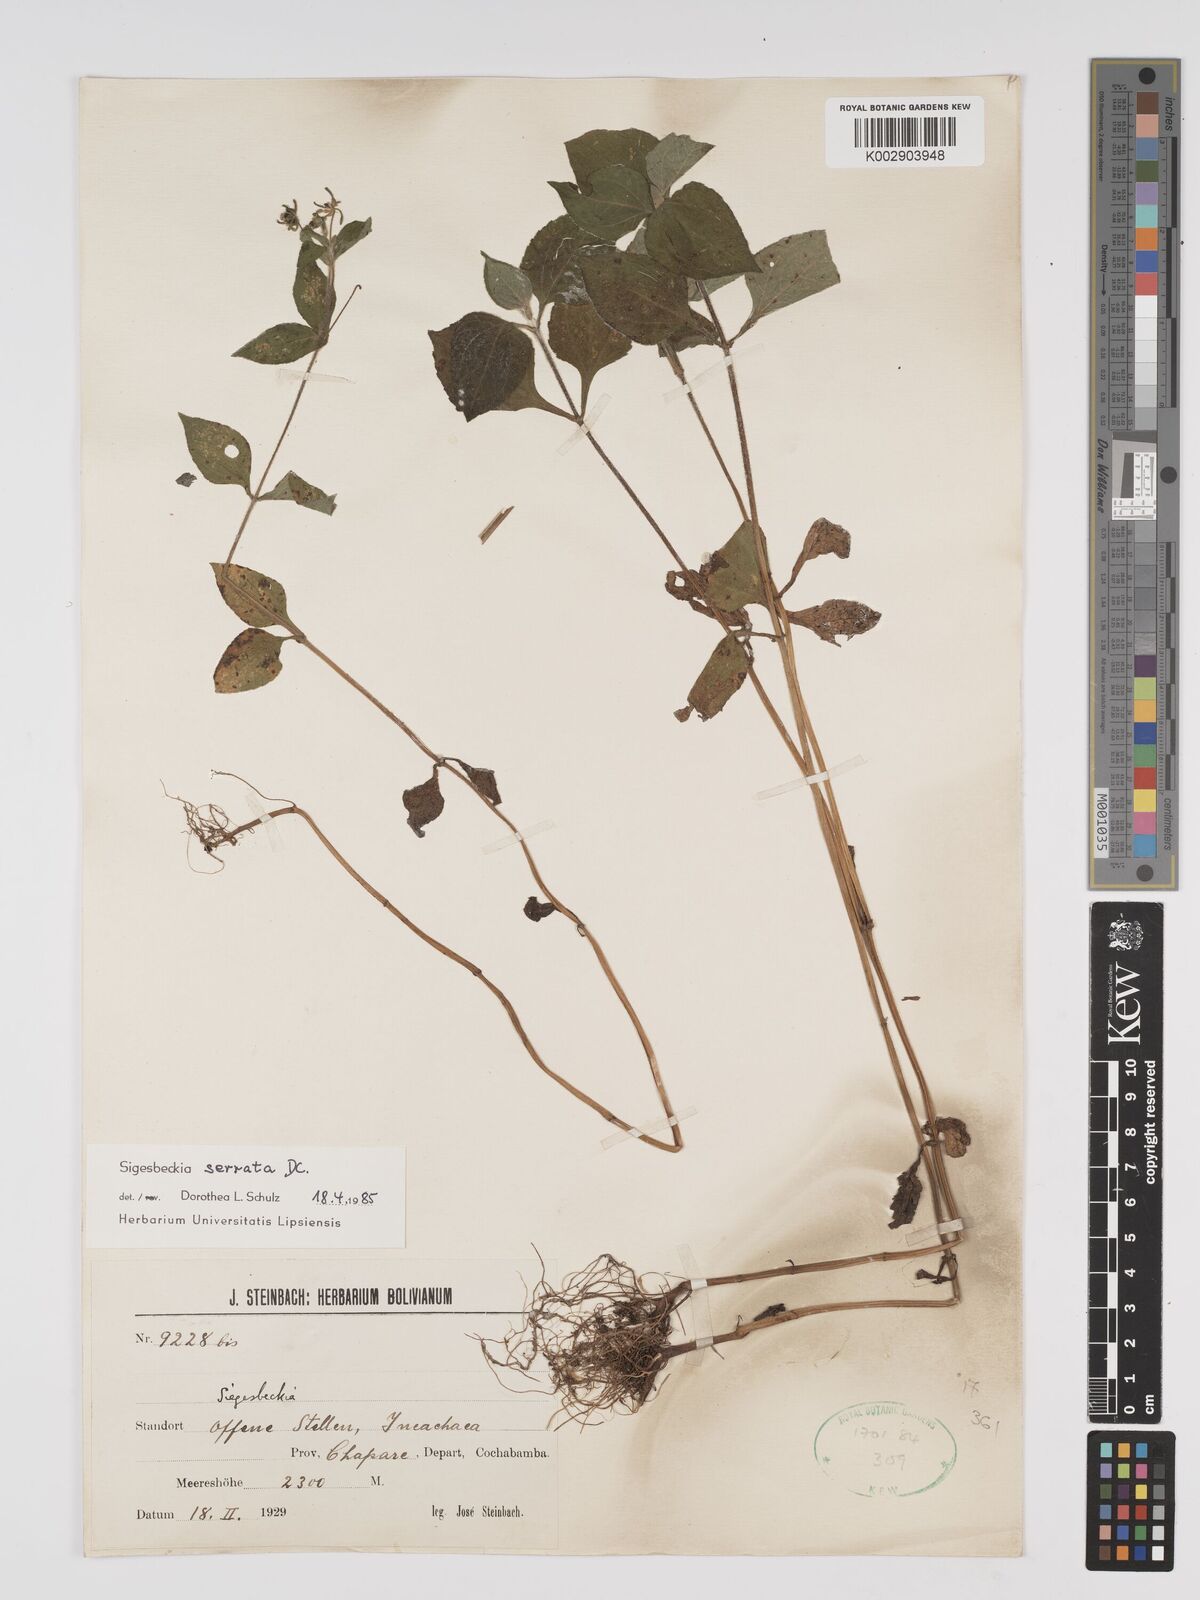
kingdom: Plantae
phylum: Tracheophyta
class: Magnoliopsida
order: Asterales
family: Asteraceae
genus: Sigesbeckia
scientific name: Sigesbeckia jorullensis
